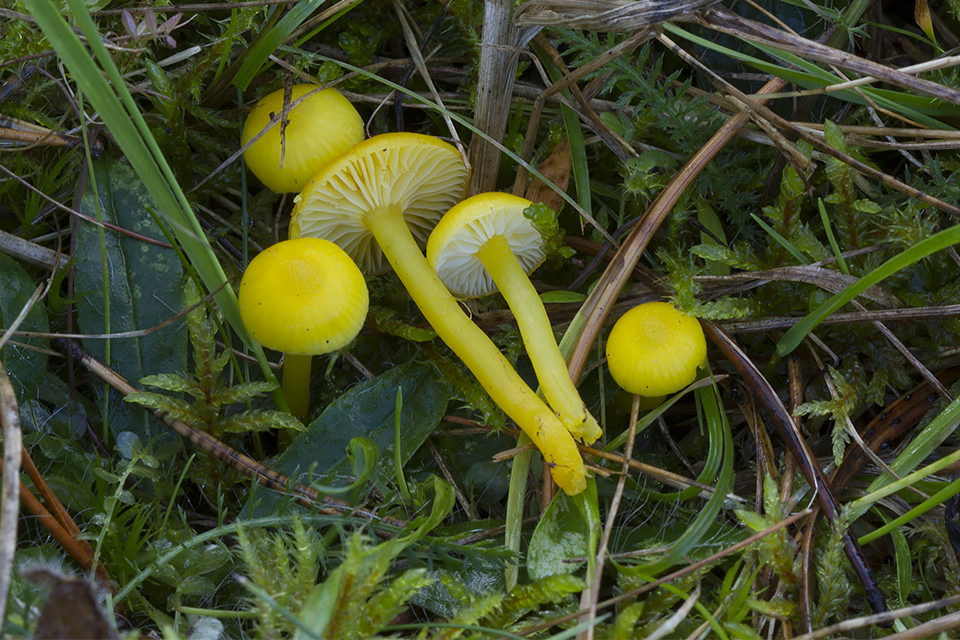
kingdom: Fungi
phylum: Basidiomycota
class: Agaricomycetes
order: Agaricales
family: Hygrophoraceae
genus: Hygrocybe
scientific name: Hygrocybe ceracea
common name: voksgul vokshat
